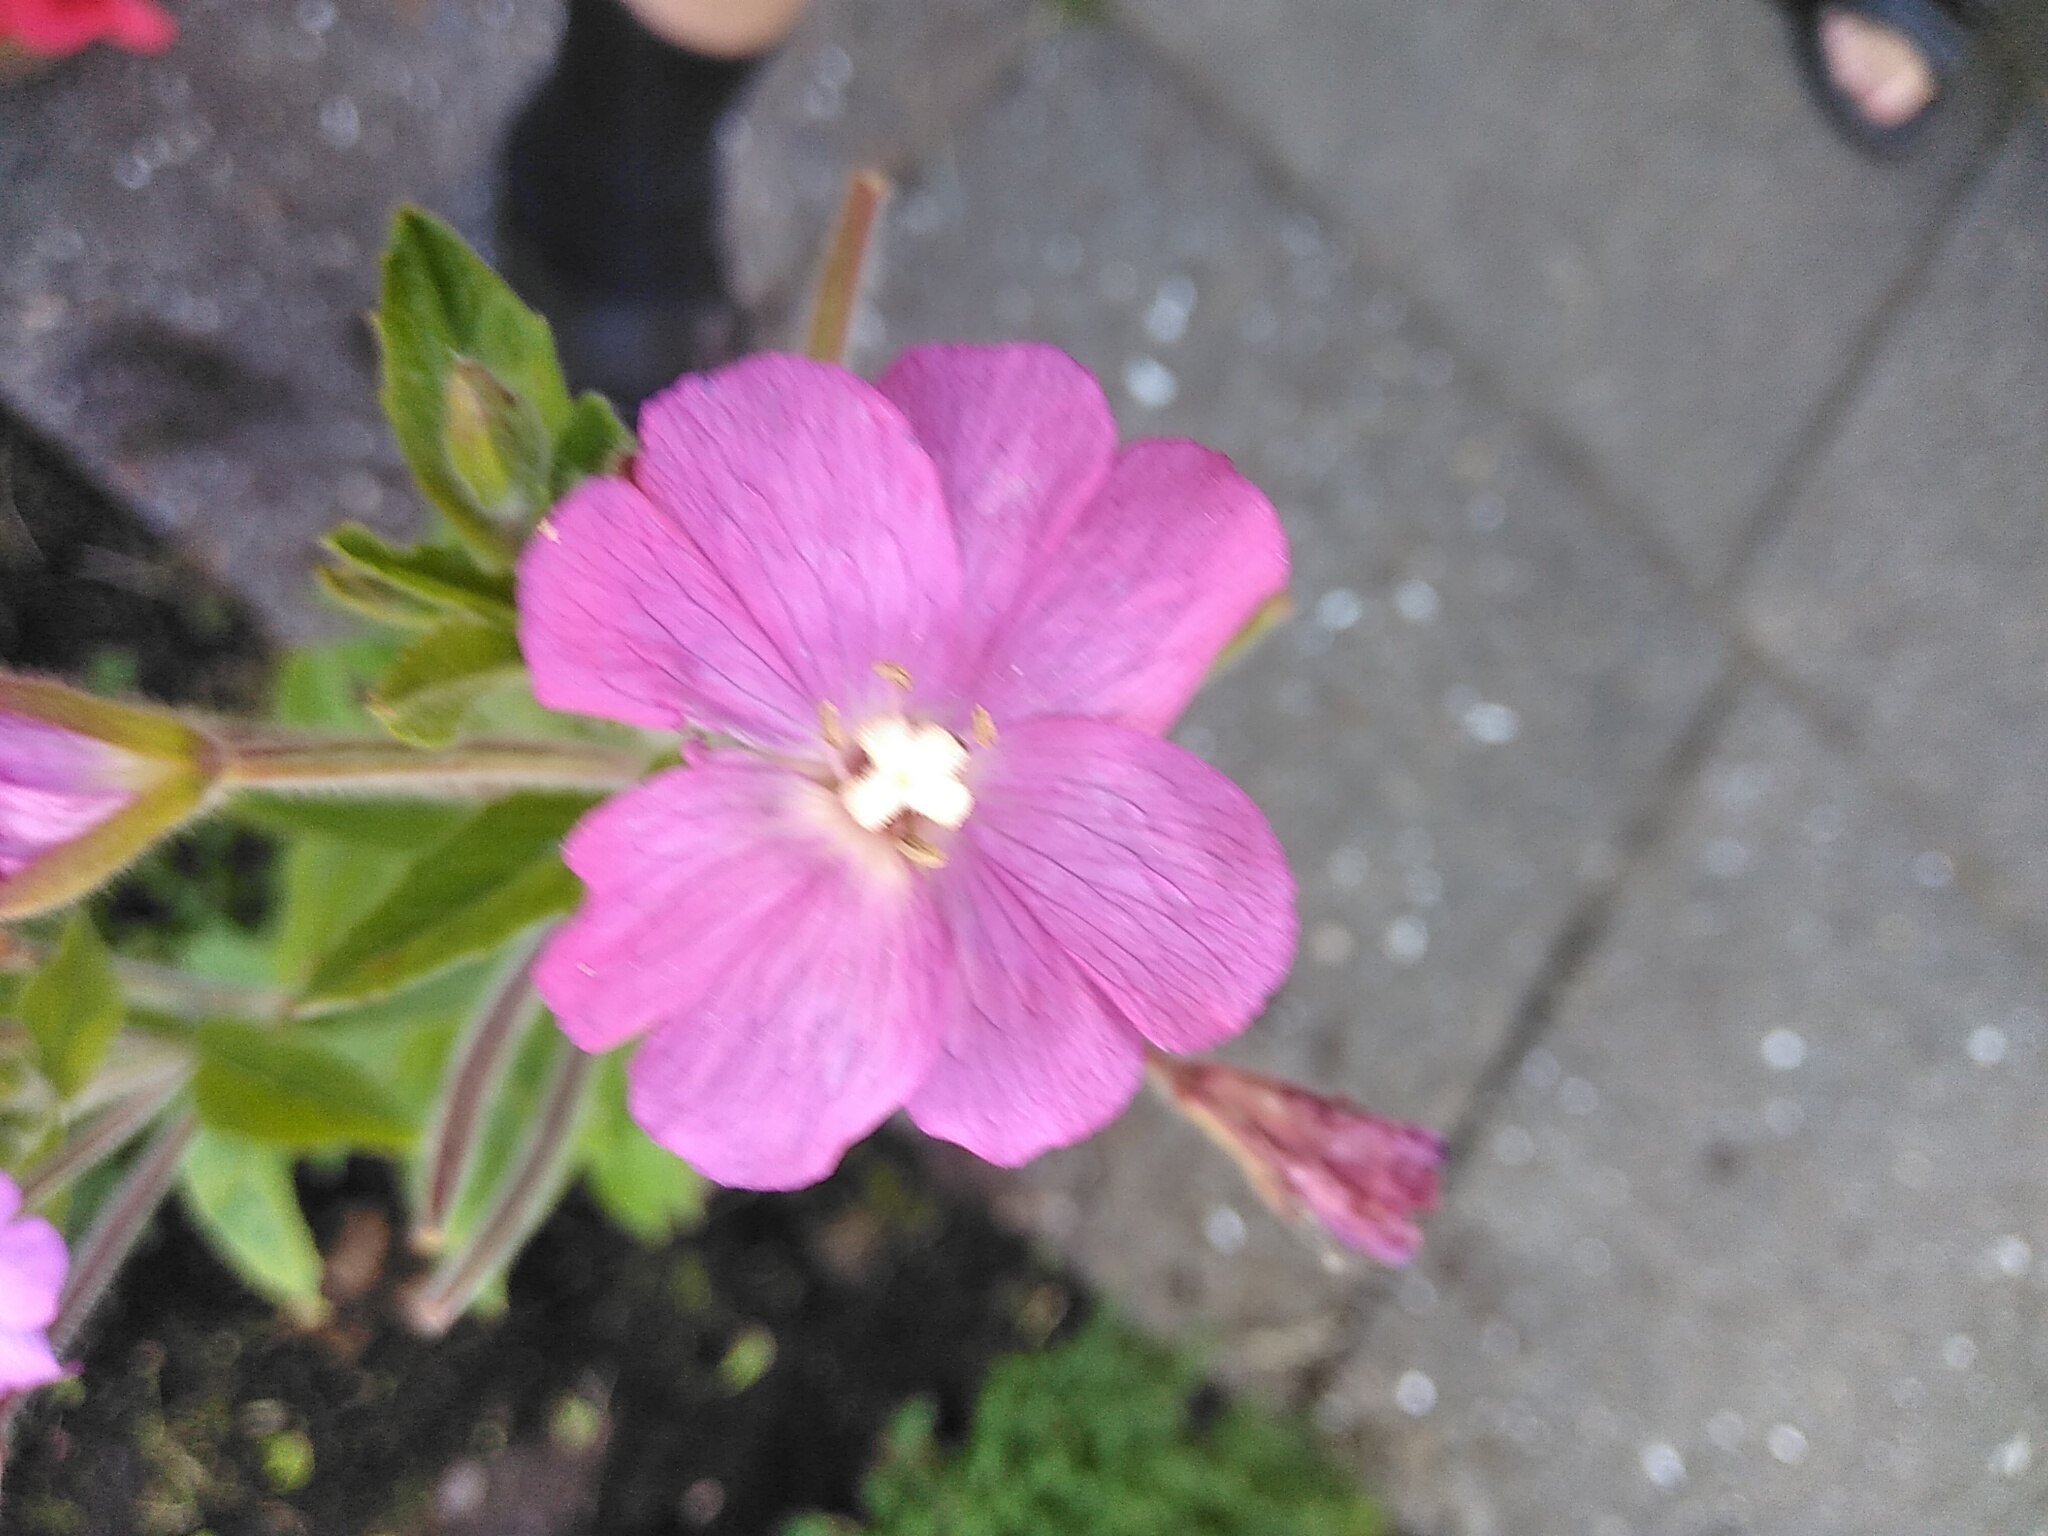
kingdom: Plantae
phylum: Tracheophyta
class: Magnoliopsida
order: Myrtales
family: Onagraceae
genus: Epilobium
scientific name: Epilobium hirsutum
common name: Lådden dueurt
